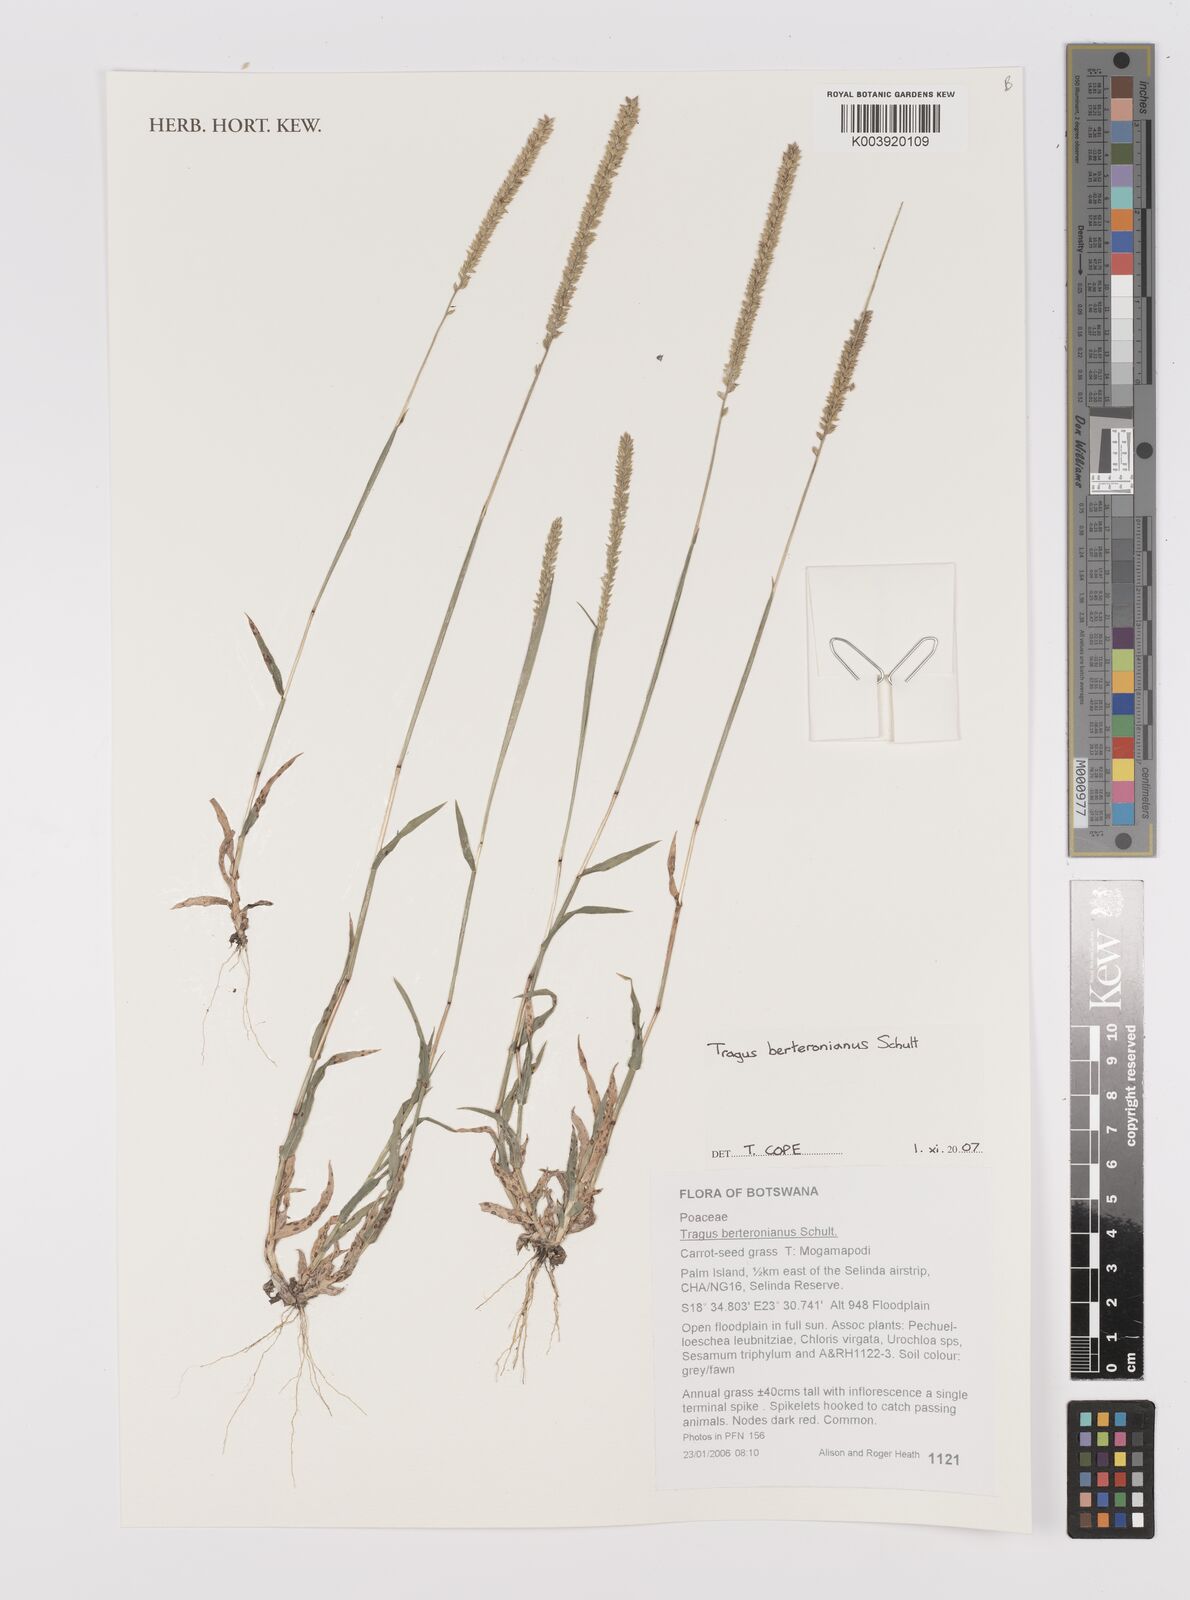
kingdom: Plantae
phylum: Tracheophyta
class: Liliopsida
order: Poales
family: Poaceae
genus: Tragus
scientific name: Tragus berteronianus
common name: African bur-grass
